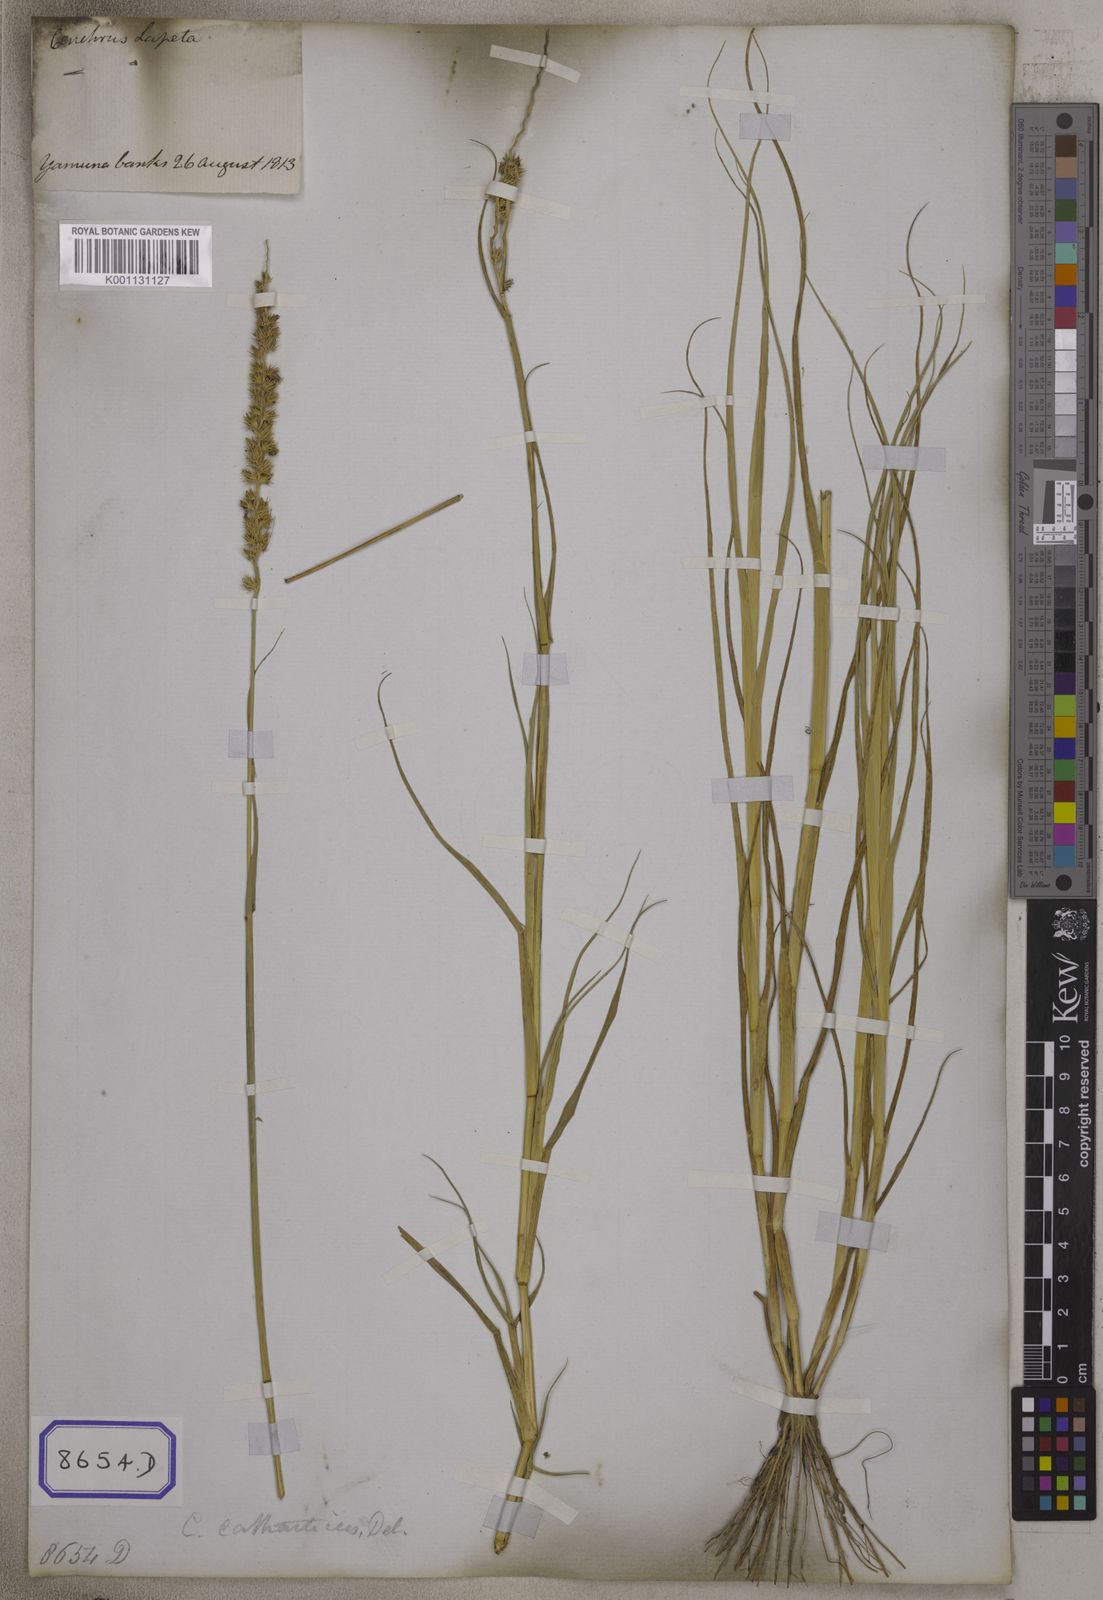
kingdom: Plantae
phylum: Tracheophyta
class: Liliopsida
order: Poales
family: Poaceae
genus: Cenchrus
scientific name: Cenchrus echinatus
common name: Southern sandbur
